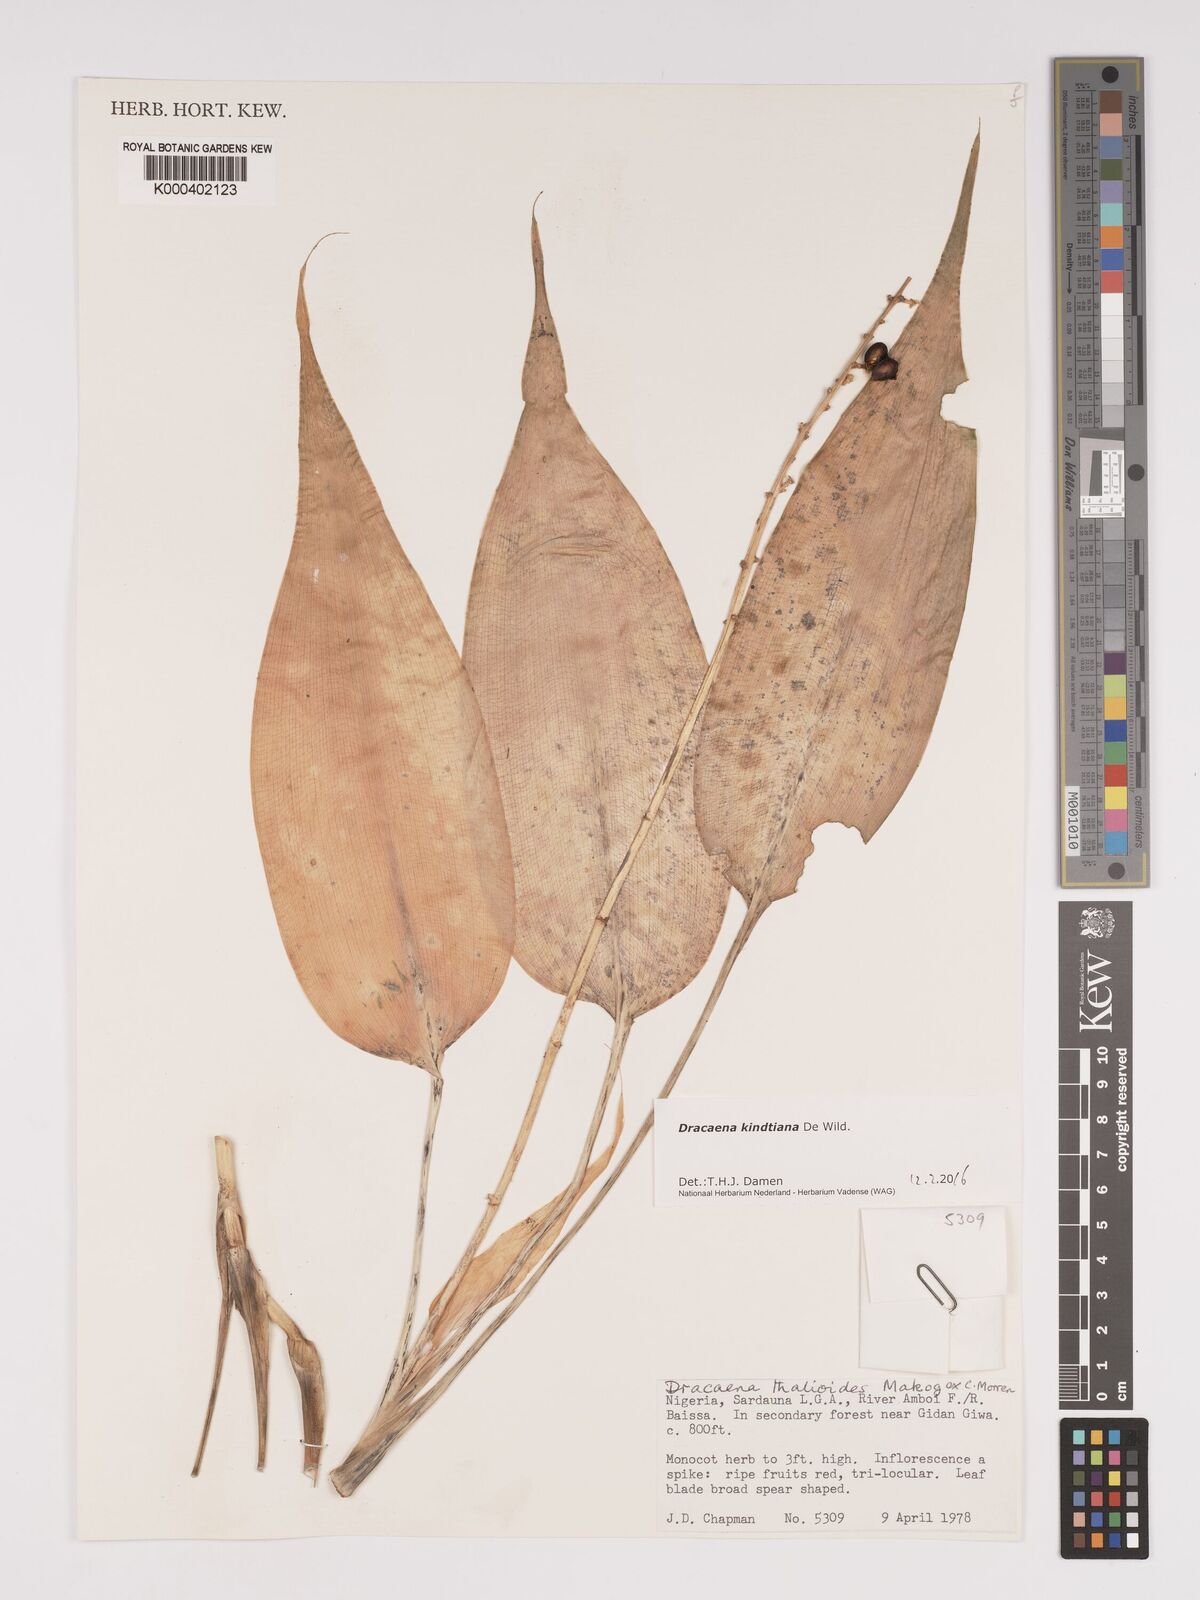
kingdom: Plantae
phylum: Tracheophyta
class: Liliopsida
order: Asparagales
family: Asparagaceae
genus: Dracaena
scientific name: Dracaena kindtiana
